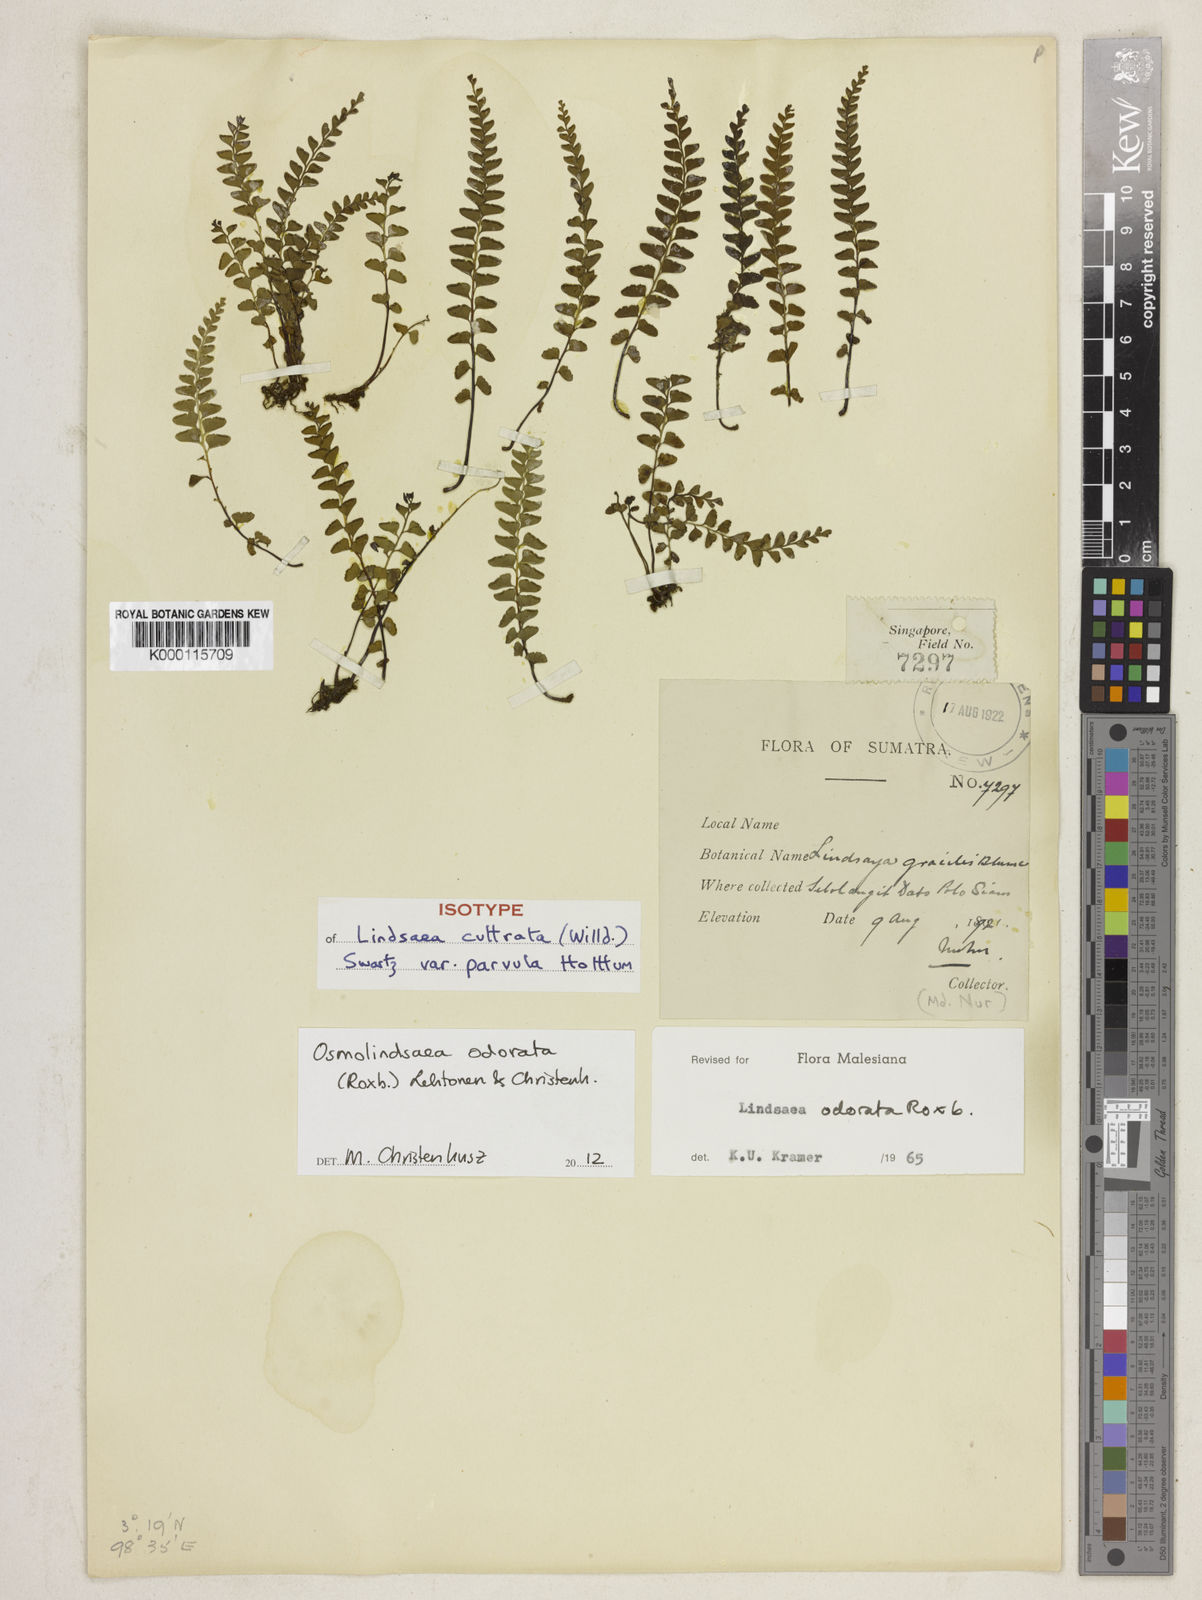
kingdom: Plantae
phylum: Tracheophyta
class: Polypodiopsida
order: Polypodiales
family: Lindsaeaceae
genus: Osmolindsaea
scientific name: Osmolindsaea odorata
